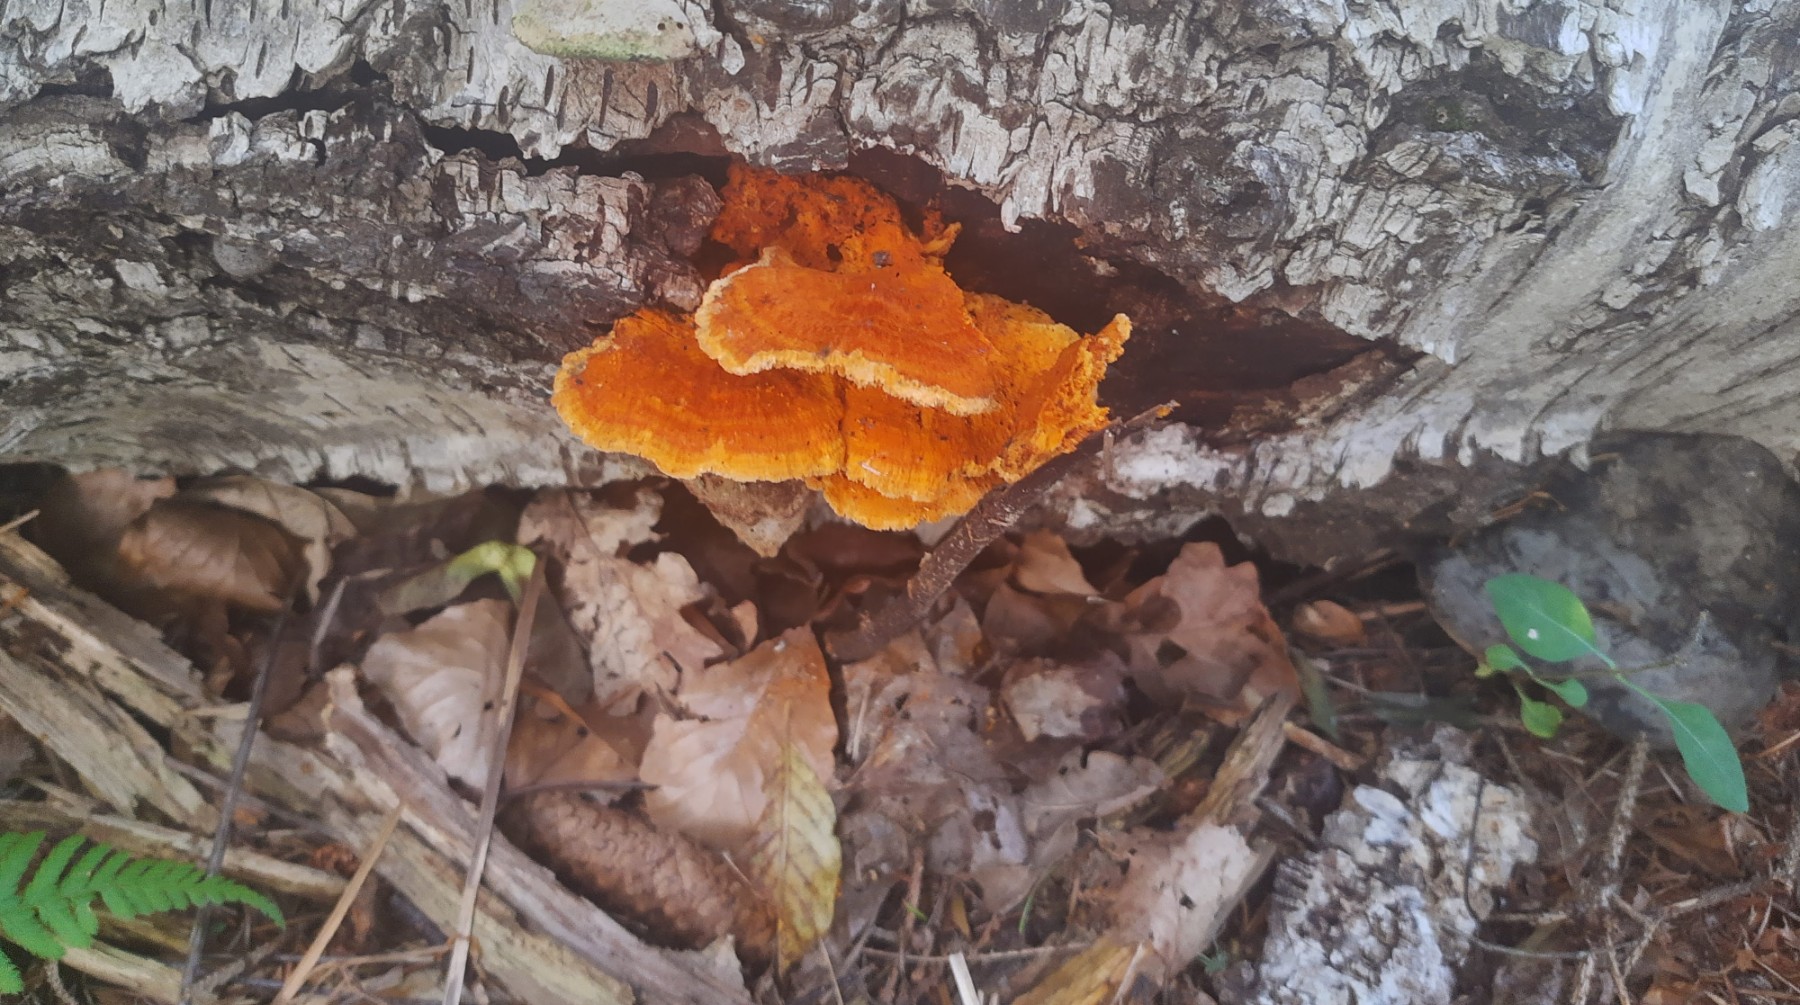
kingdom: Fungi
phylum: Basidiomycota
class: Agaricomycetes
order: Polyporales
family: Pycnoporellaceae
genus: Pycnoporellus
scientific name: Pycnoporellus fulgens
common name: flammeporesvamp
